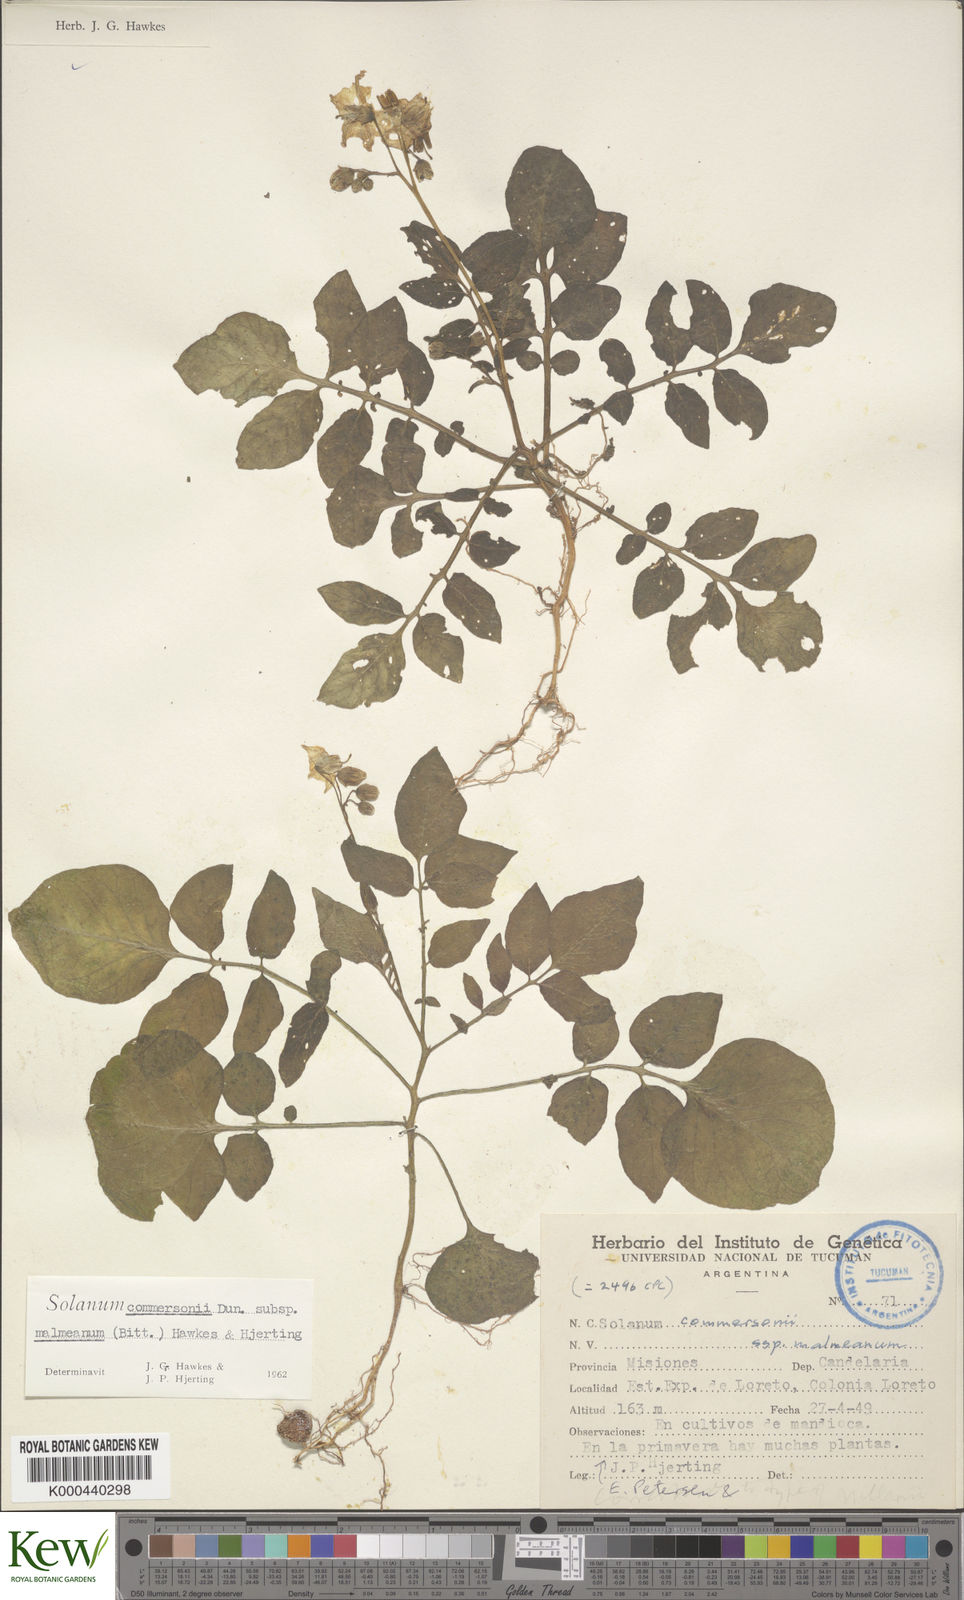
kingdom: Plantae
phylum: Tracheophyta
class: Magnoliopsida
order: Solanales
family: Solanaceae
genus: Solanum
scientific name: Solanum malmeanum
